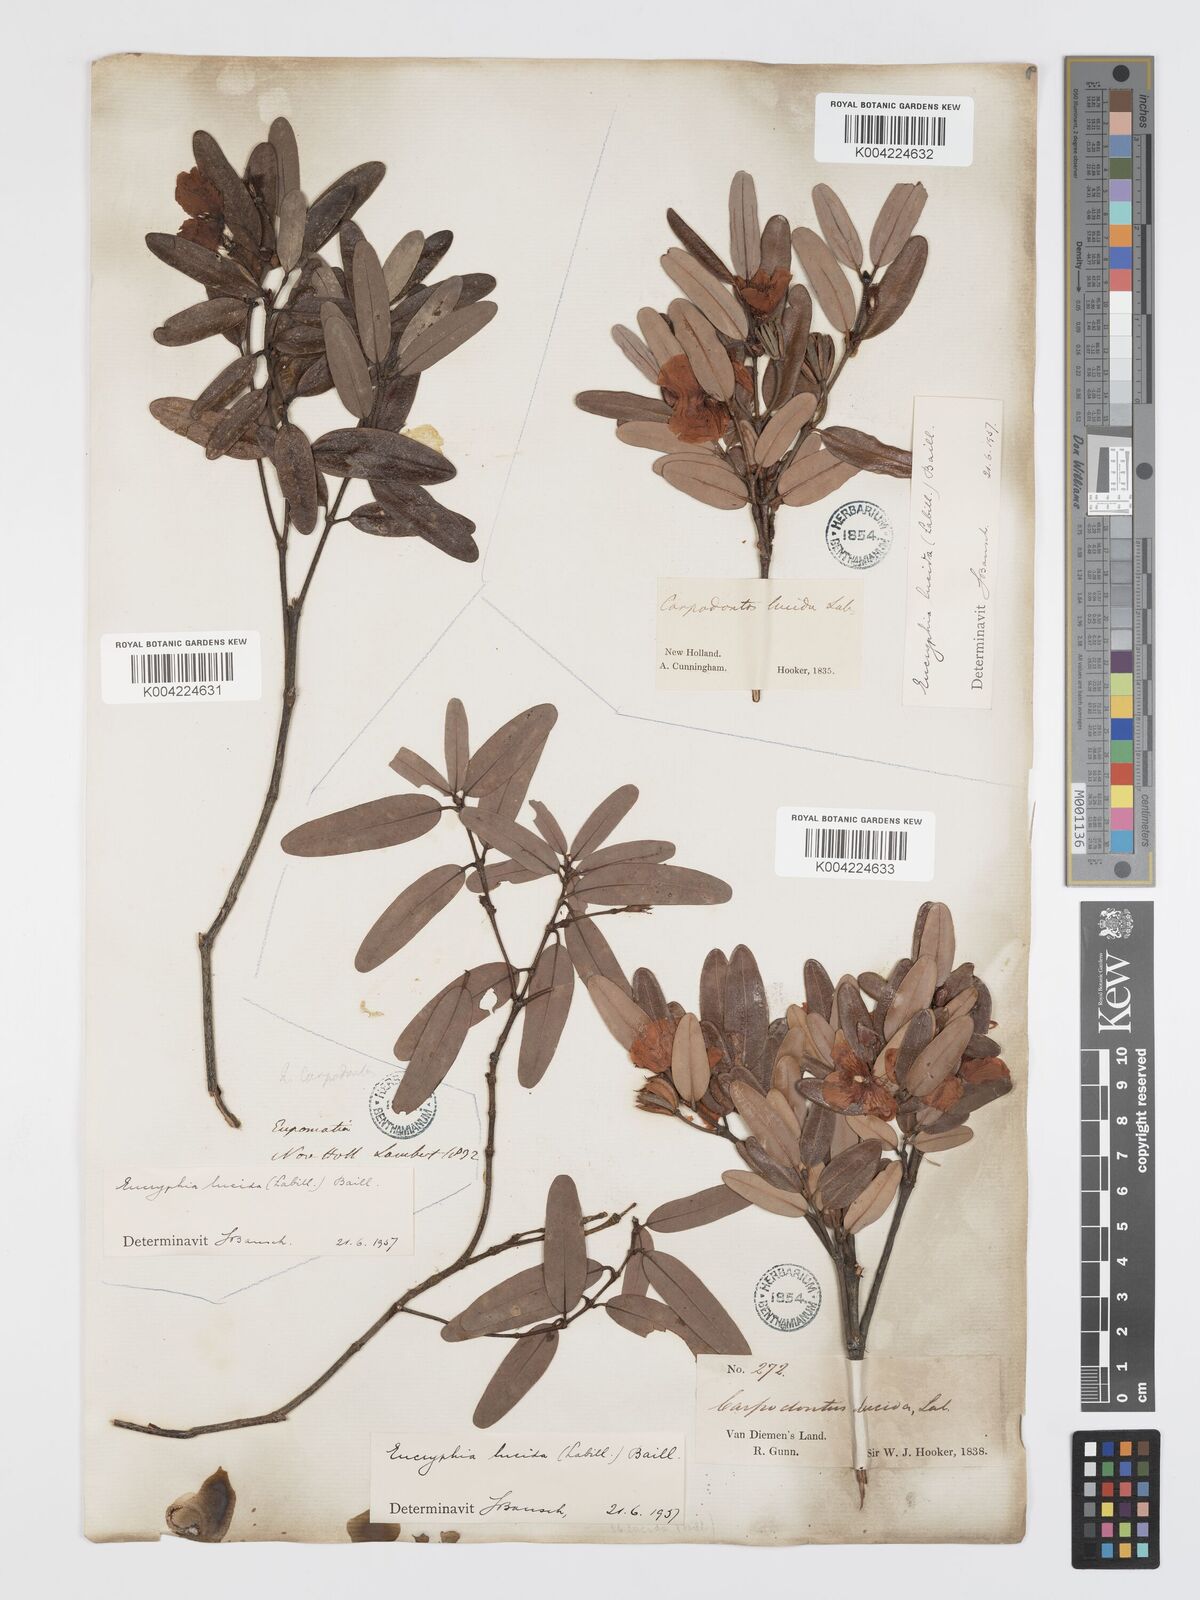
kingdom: Plantae
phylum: Tracheophyta
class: Magnoliopsida
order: Oxalidales
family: Cunoniaceae
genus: Eucryphia
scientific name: Eucryphia lucida
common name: Leatherwood
